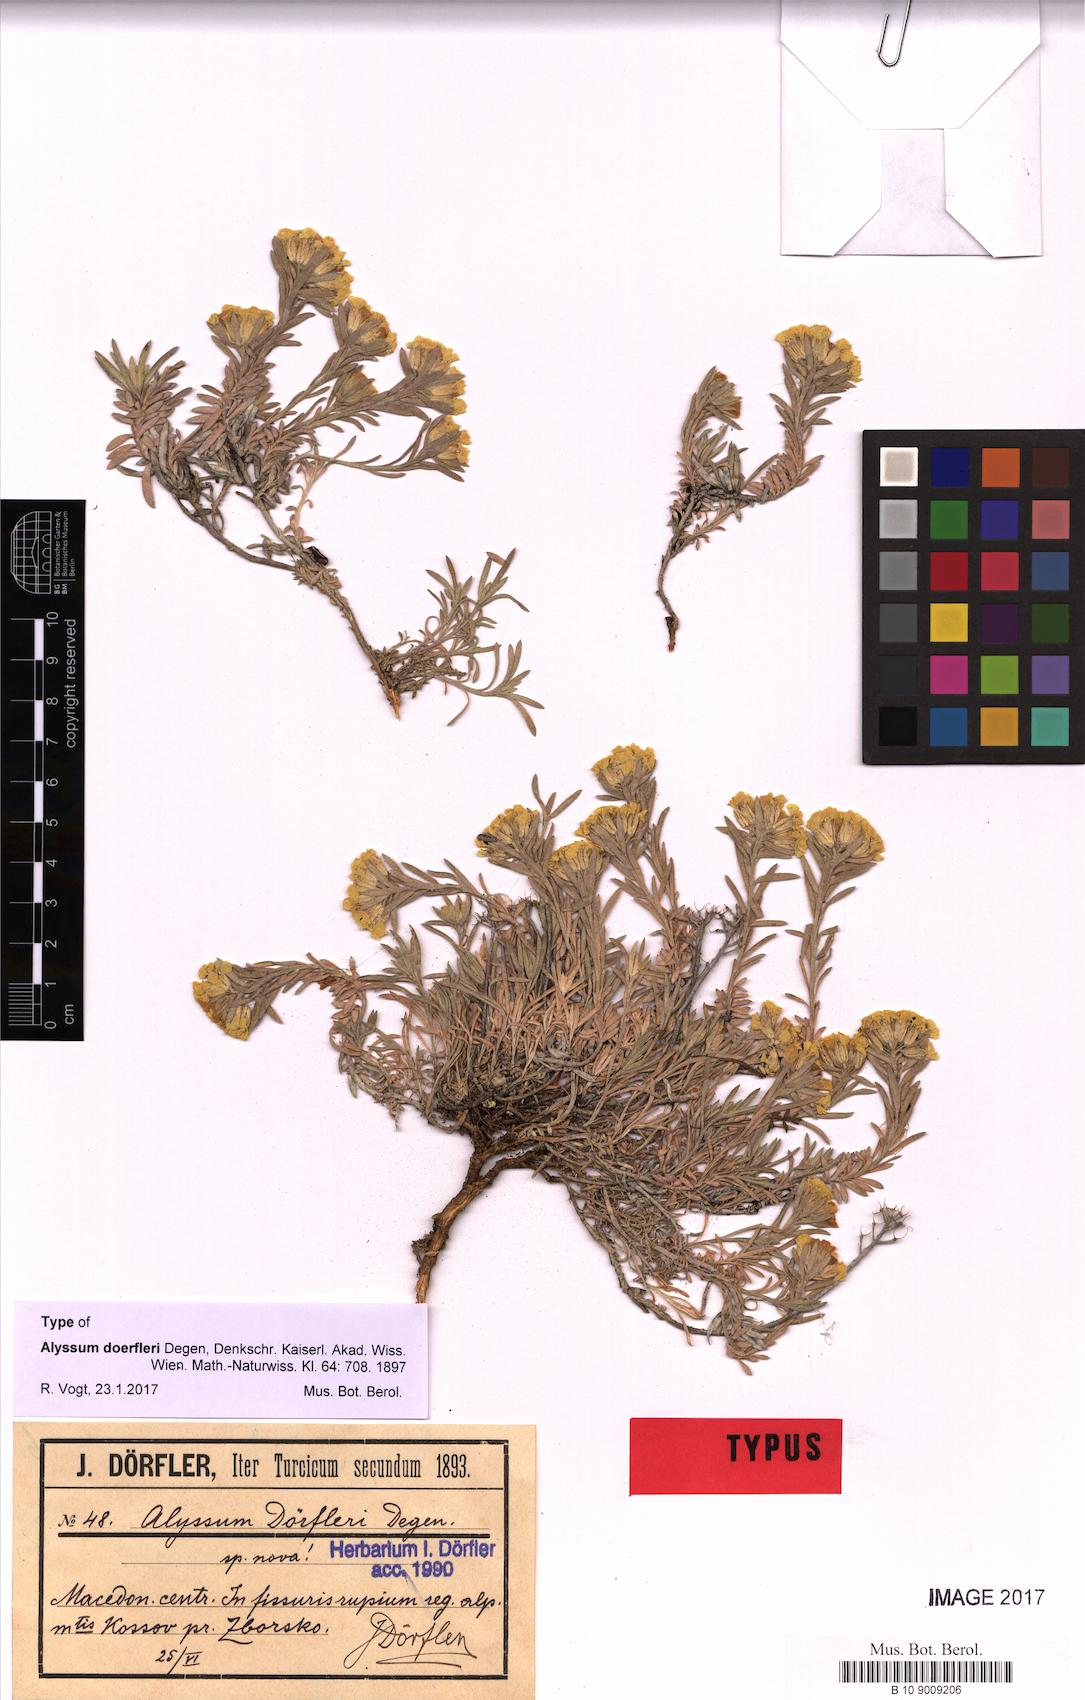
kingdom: Plantae
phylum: Tracheophyta
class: Magnoliopsida
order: Brassicales
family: Brassicaceae
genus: Alyssum
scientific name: Alyssum doerfleri
